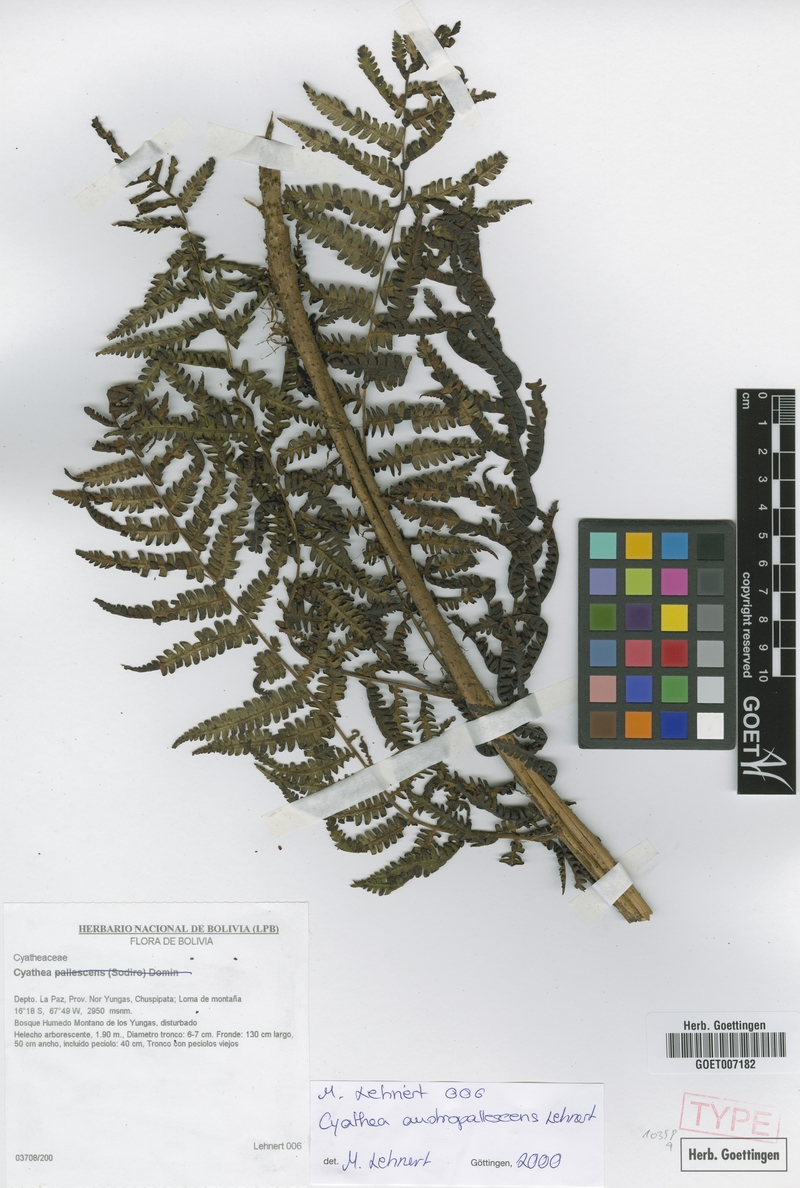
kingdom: Plantae
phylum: Tracheophyta
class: Polypodiopsida
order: Cyatheales
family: Cyatheaceae
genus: Cyathea
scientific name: Cyathea austropallescens
